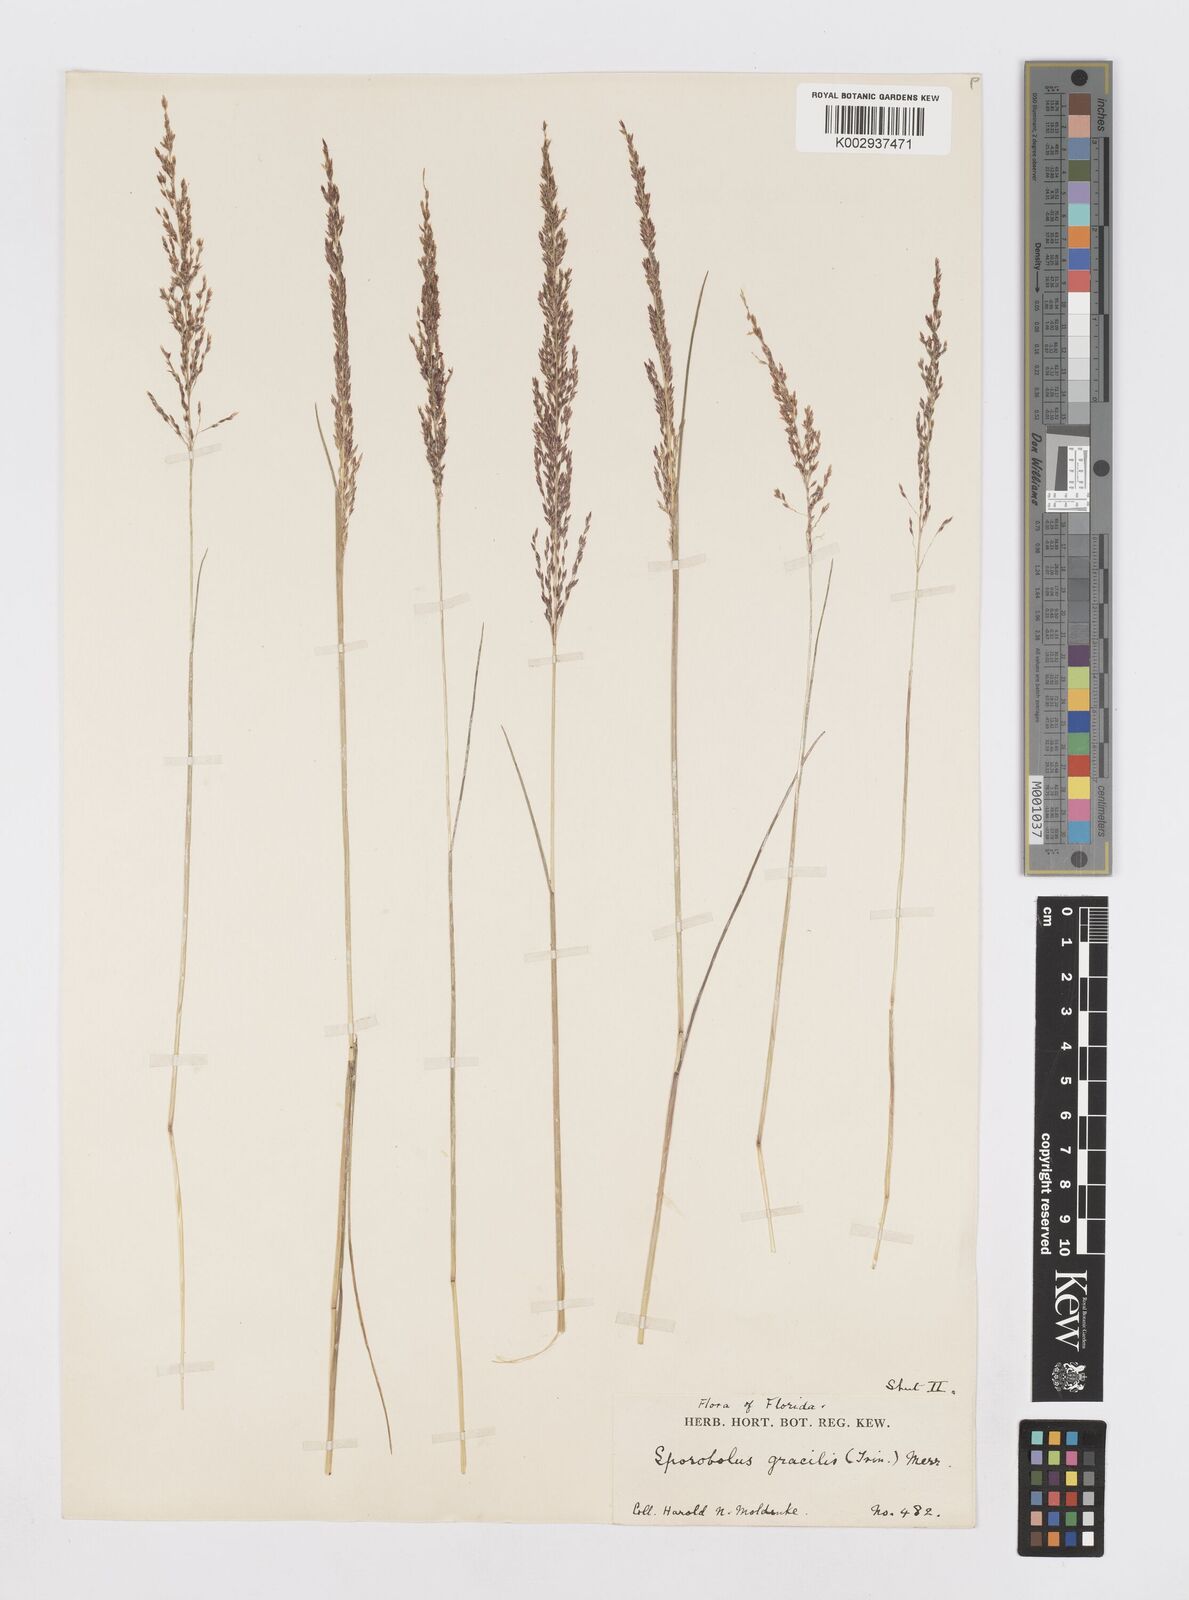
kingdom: Plantae
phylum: Tracheophyta
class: Liliopsida
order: Poales
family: Poaceae
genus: Sporobolus
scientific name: Sporobolus junceus
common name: Lizard grass
